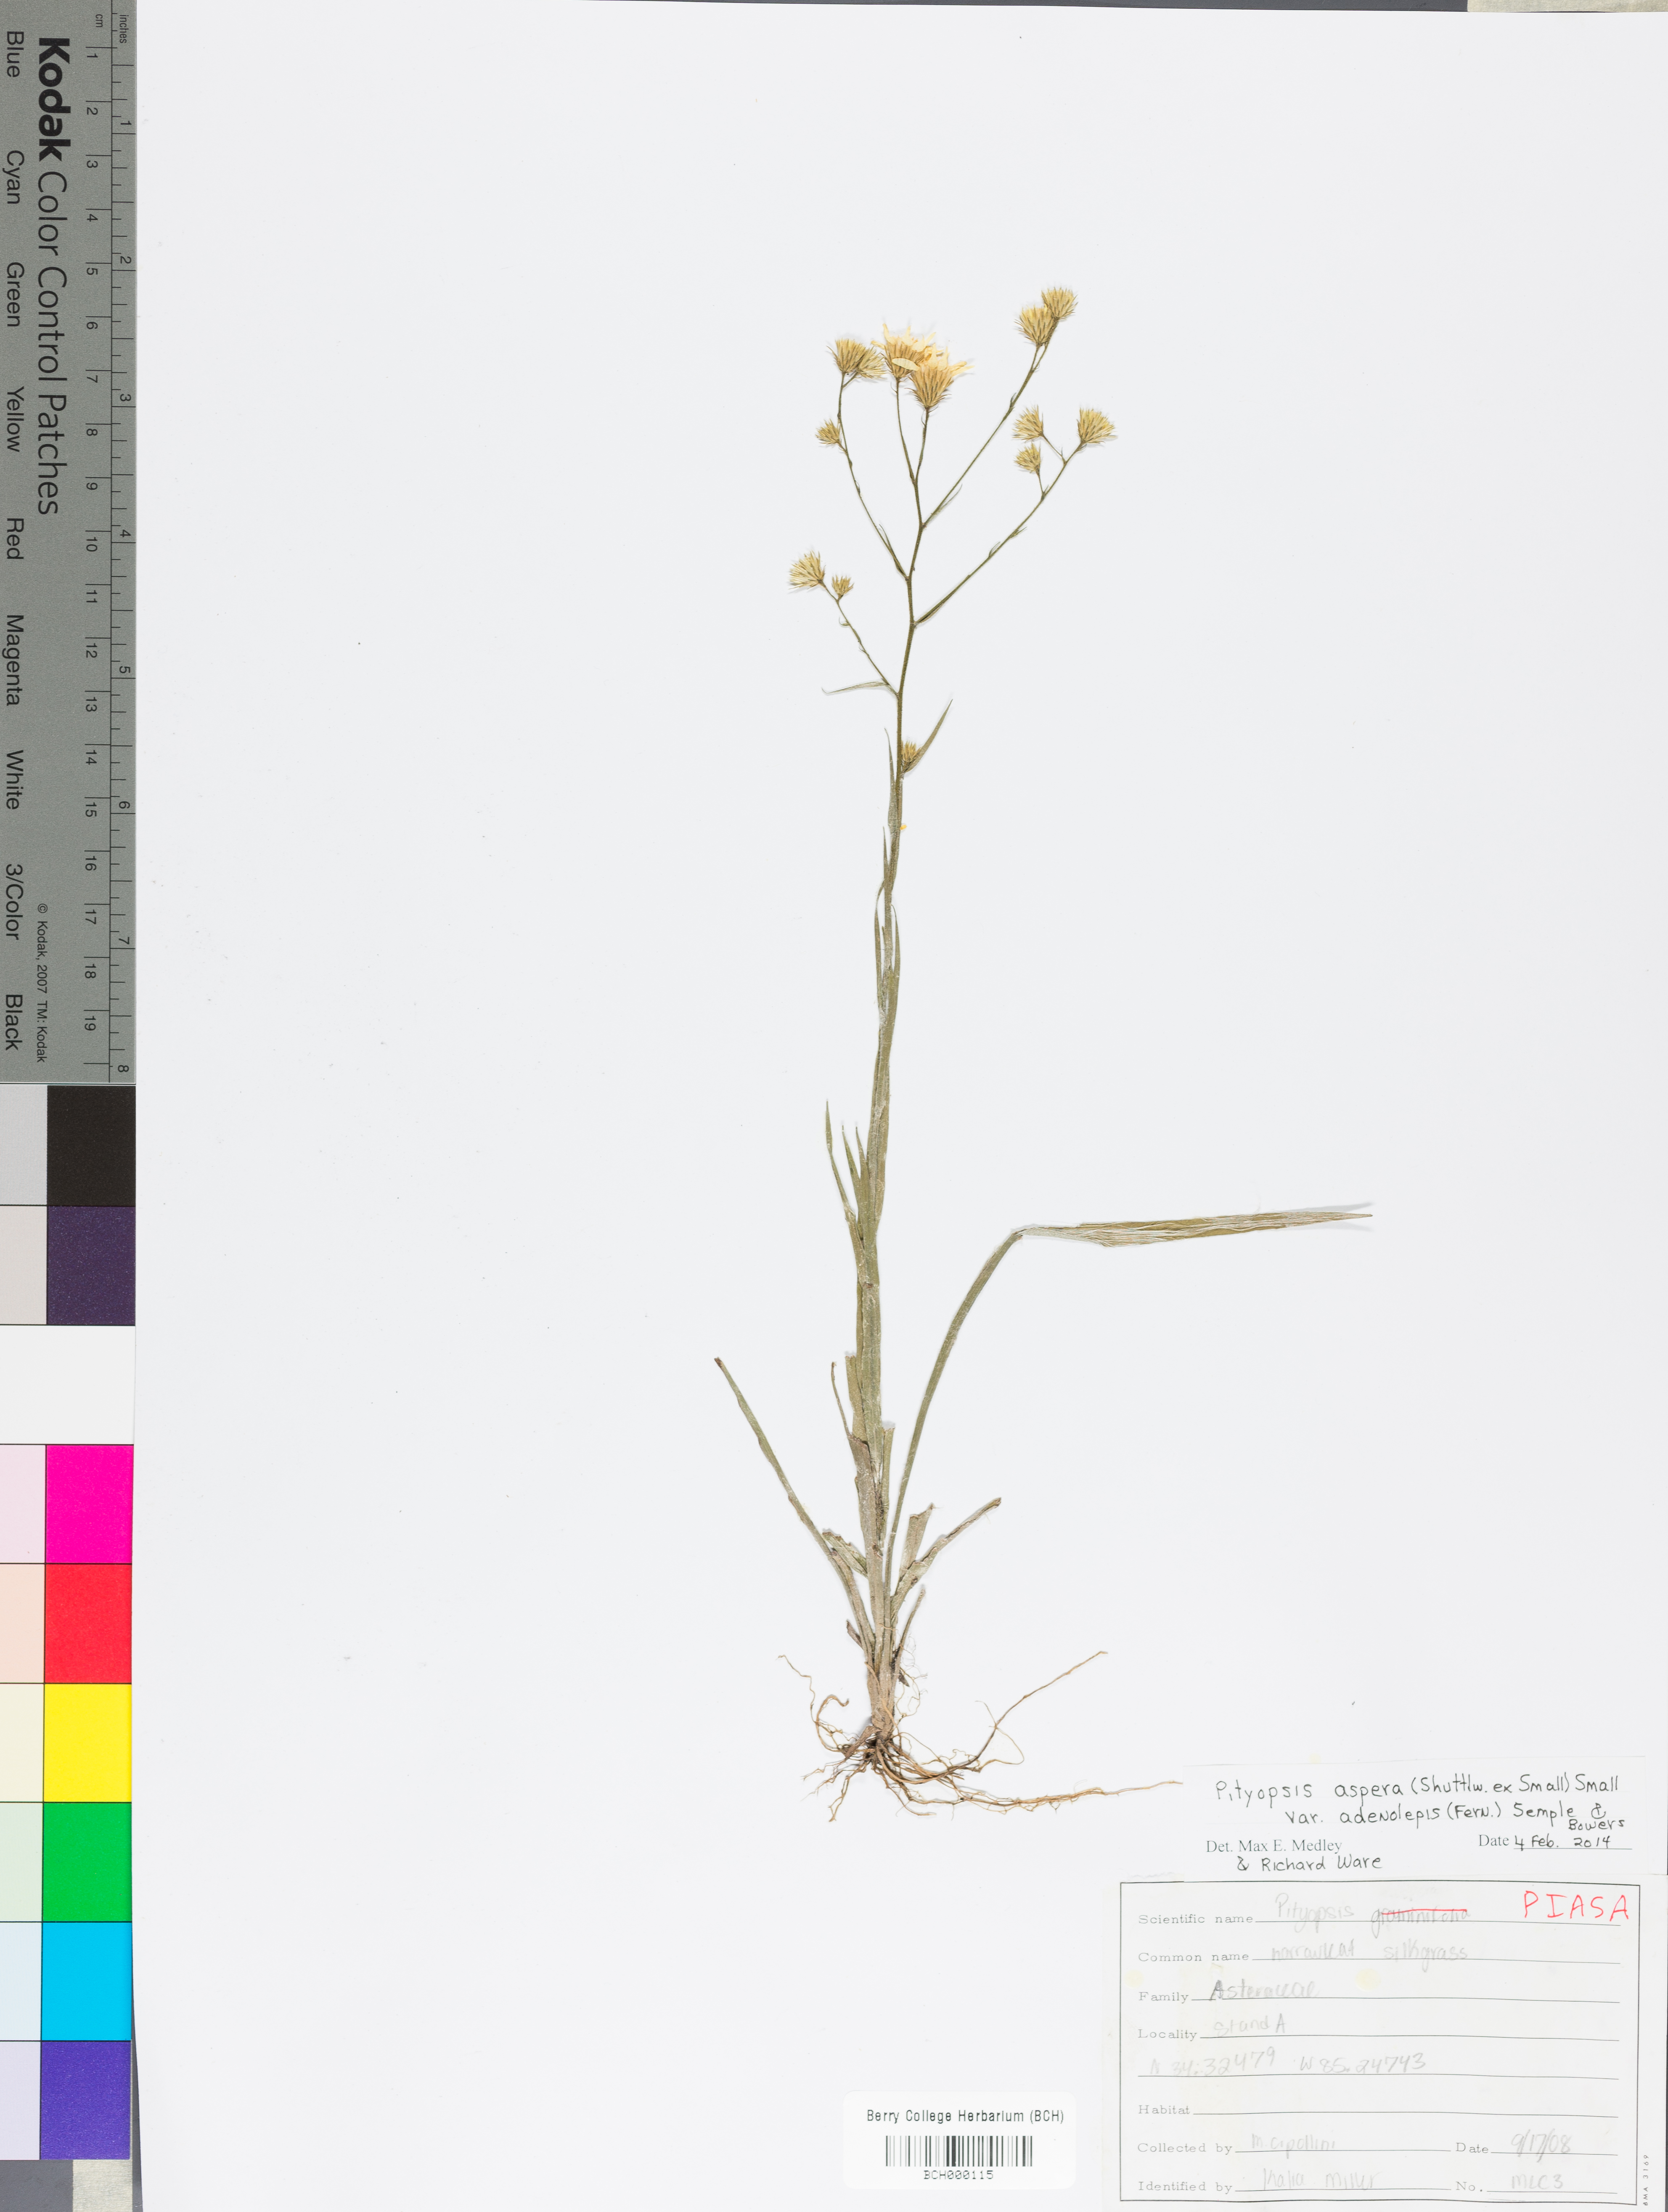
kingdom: Plantae
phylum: Tracheophyta
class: Magnoliopsida
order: Asterales
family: Asteraceae
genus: Pityopsis
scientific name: Pityopsis aspera
